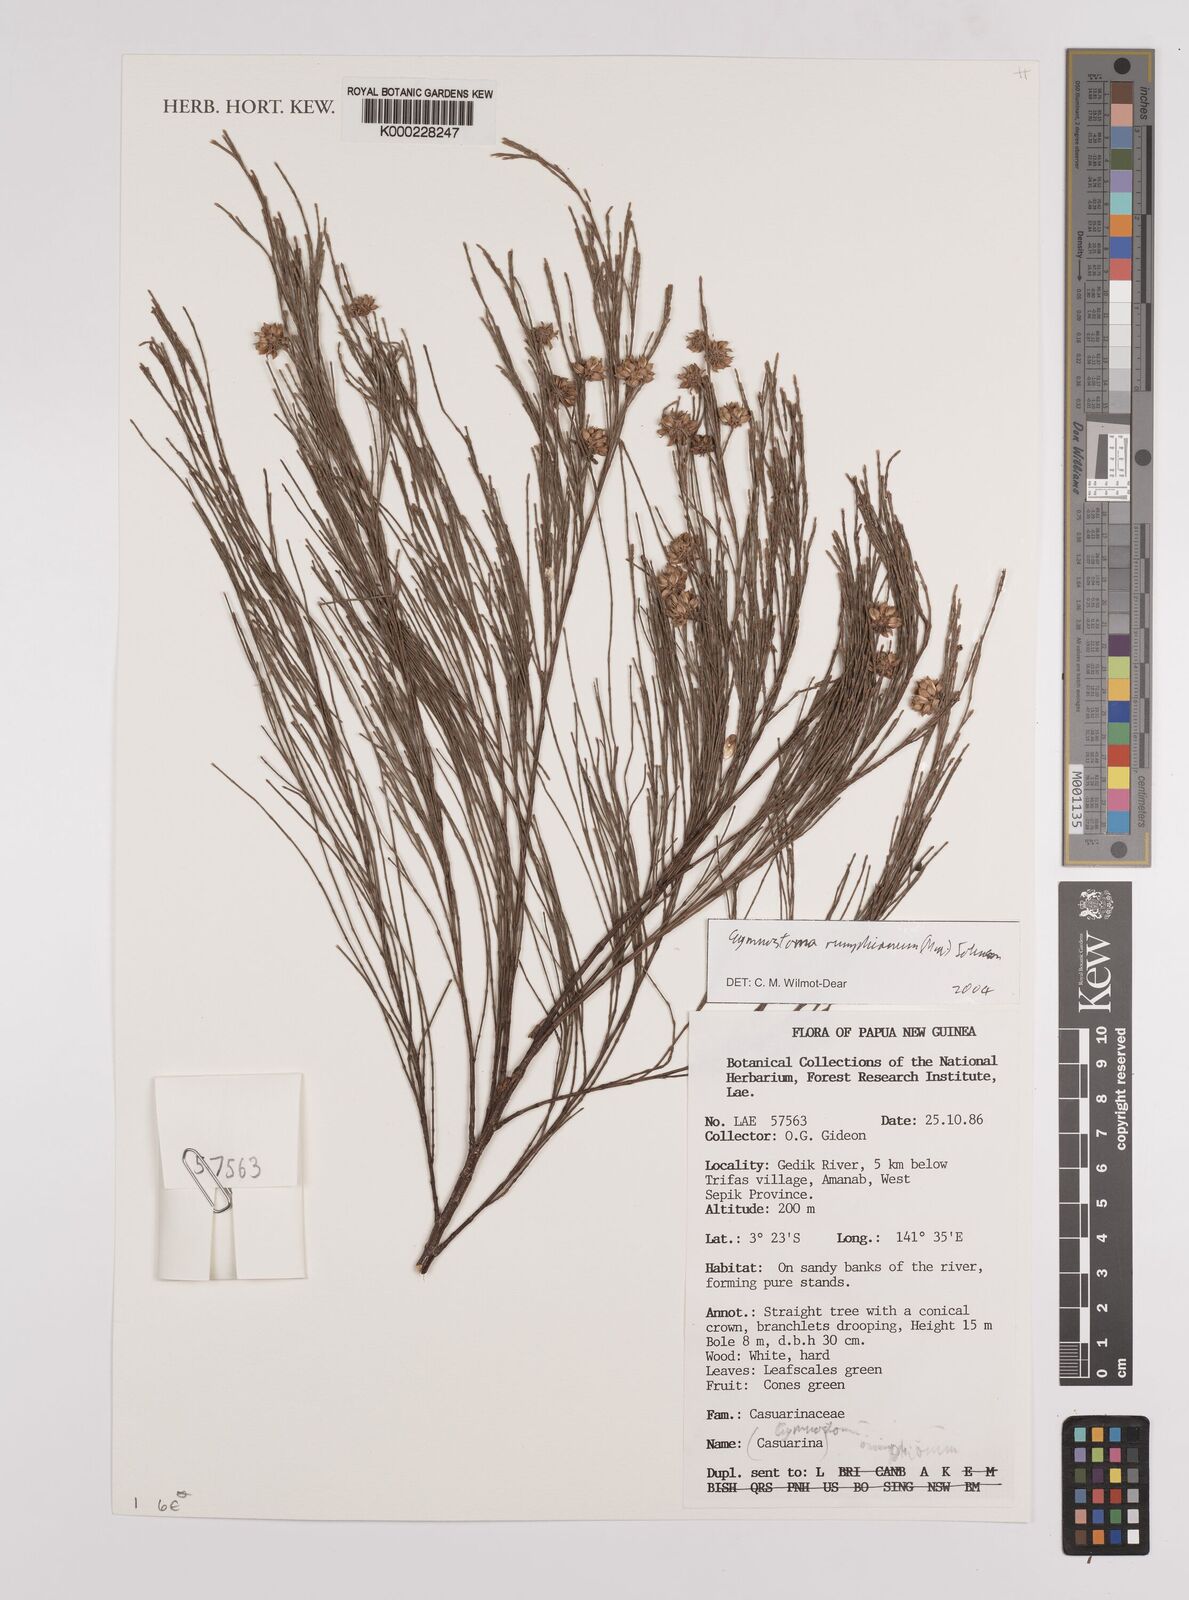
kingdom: Plantae
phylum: Tracheophyta
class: Magnoliopsida
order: Fagales
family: Casuarinaceae
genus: Gymnostoma
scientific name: Gymnostoma rumphianum
